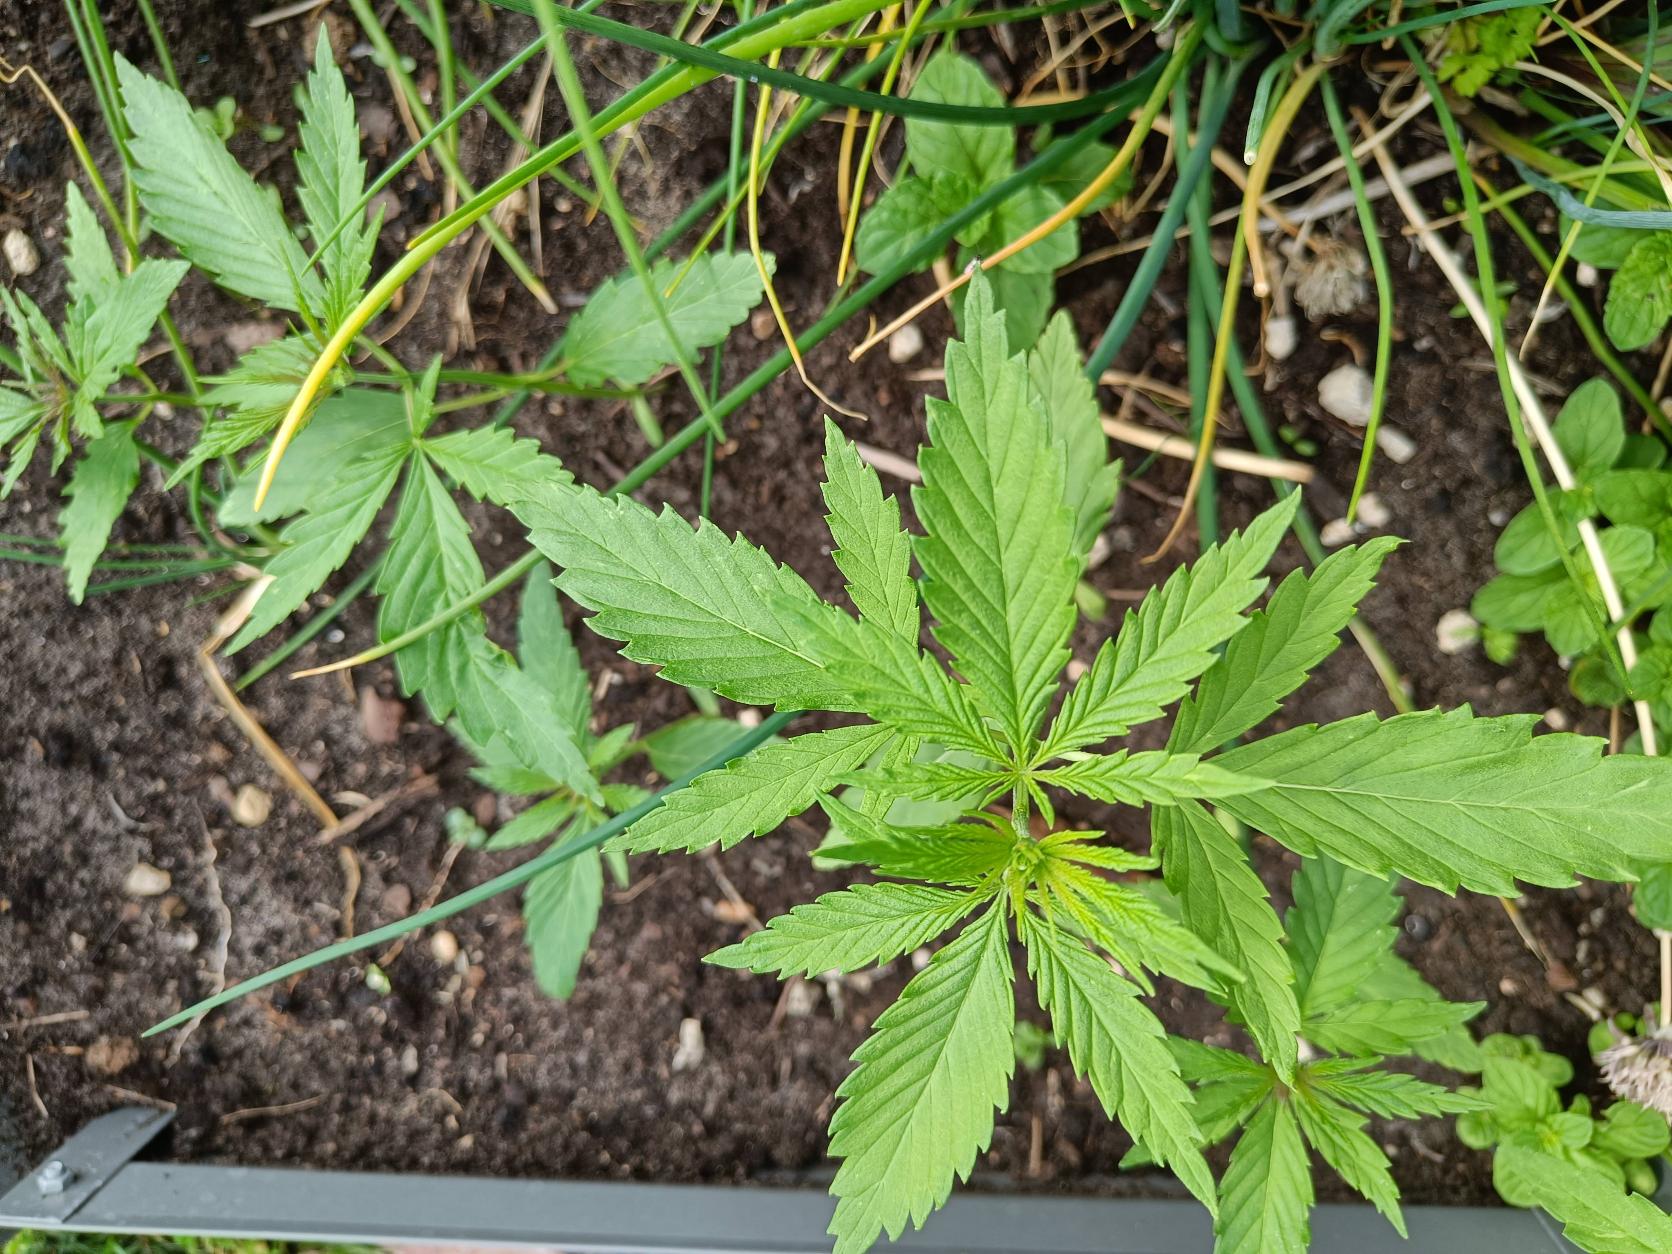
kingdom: Plantae
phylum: Tracheophyta
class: Magnoliopsida
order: Rosales
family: Cannabaceae
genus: Cannabis
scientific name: Cannabis sativa
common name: Hamp
